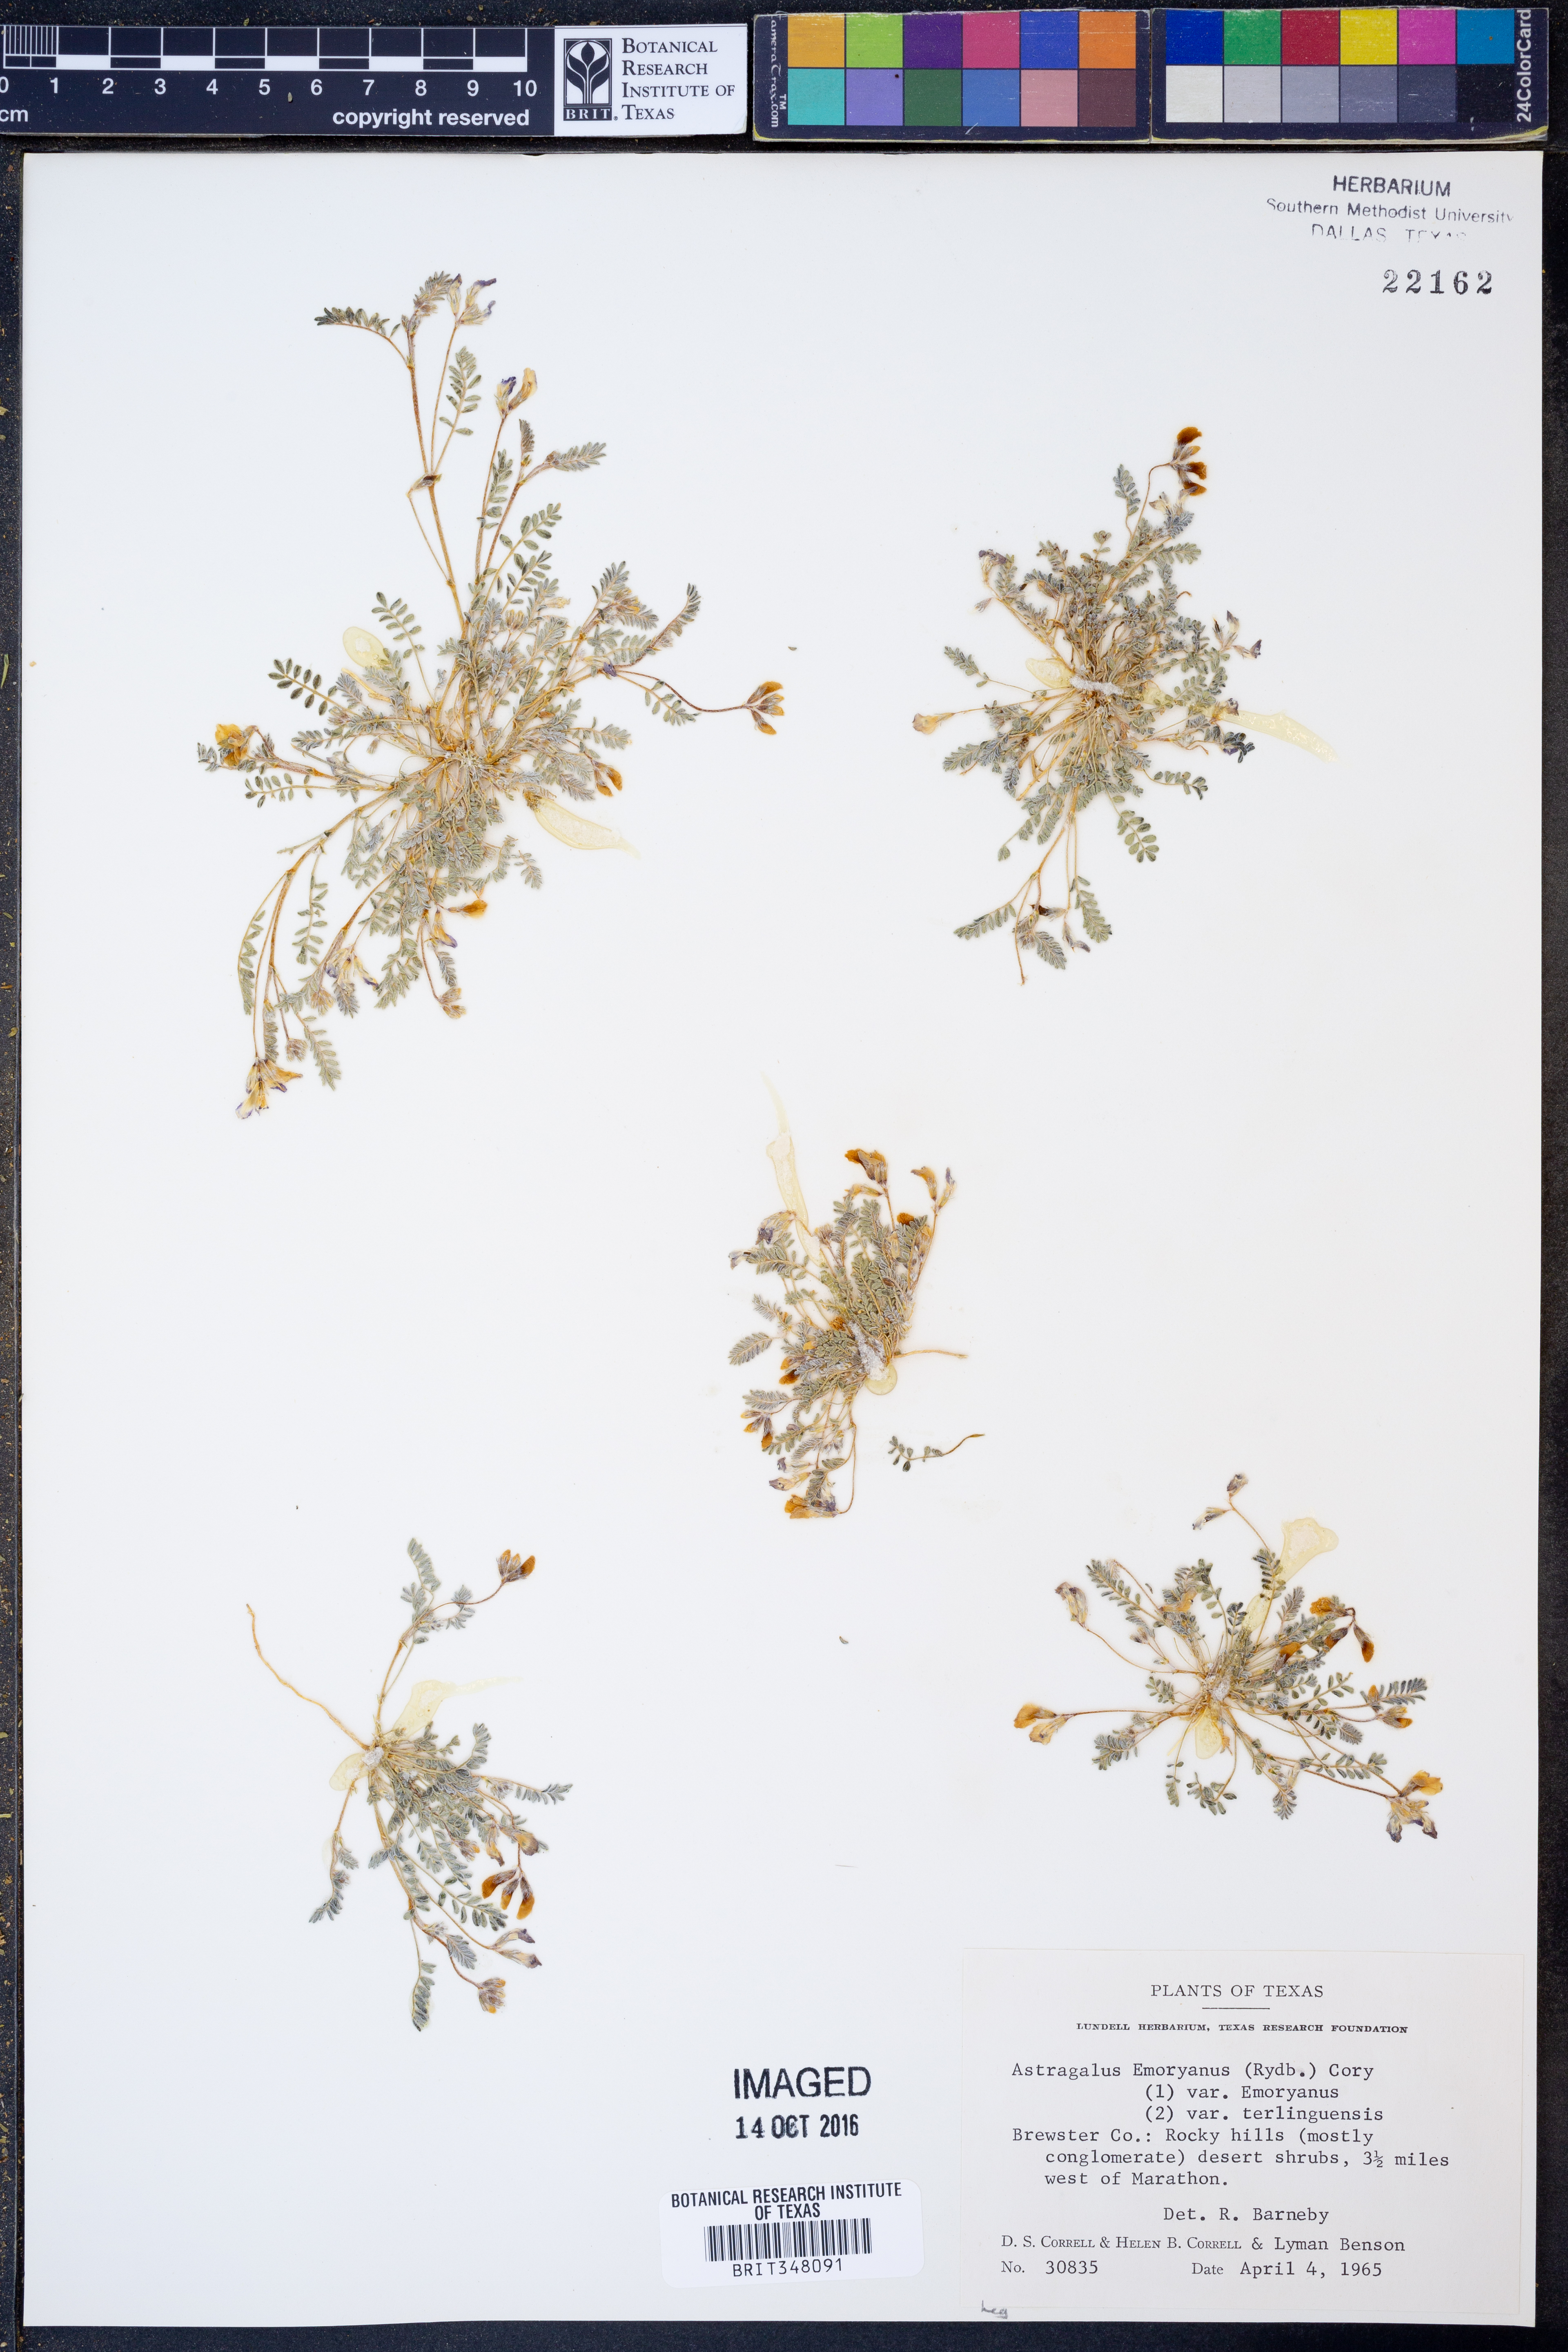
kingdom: Plantae
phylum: Tracheophyta
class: Magnoliopsida
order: Fabales
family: Fabaceae
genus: Astragalus
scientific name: Astragalus emoryanus
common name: Emory's milk-vetch
